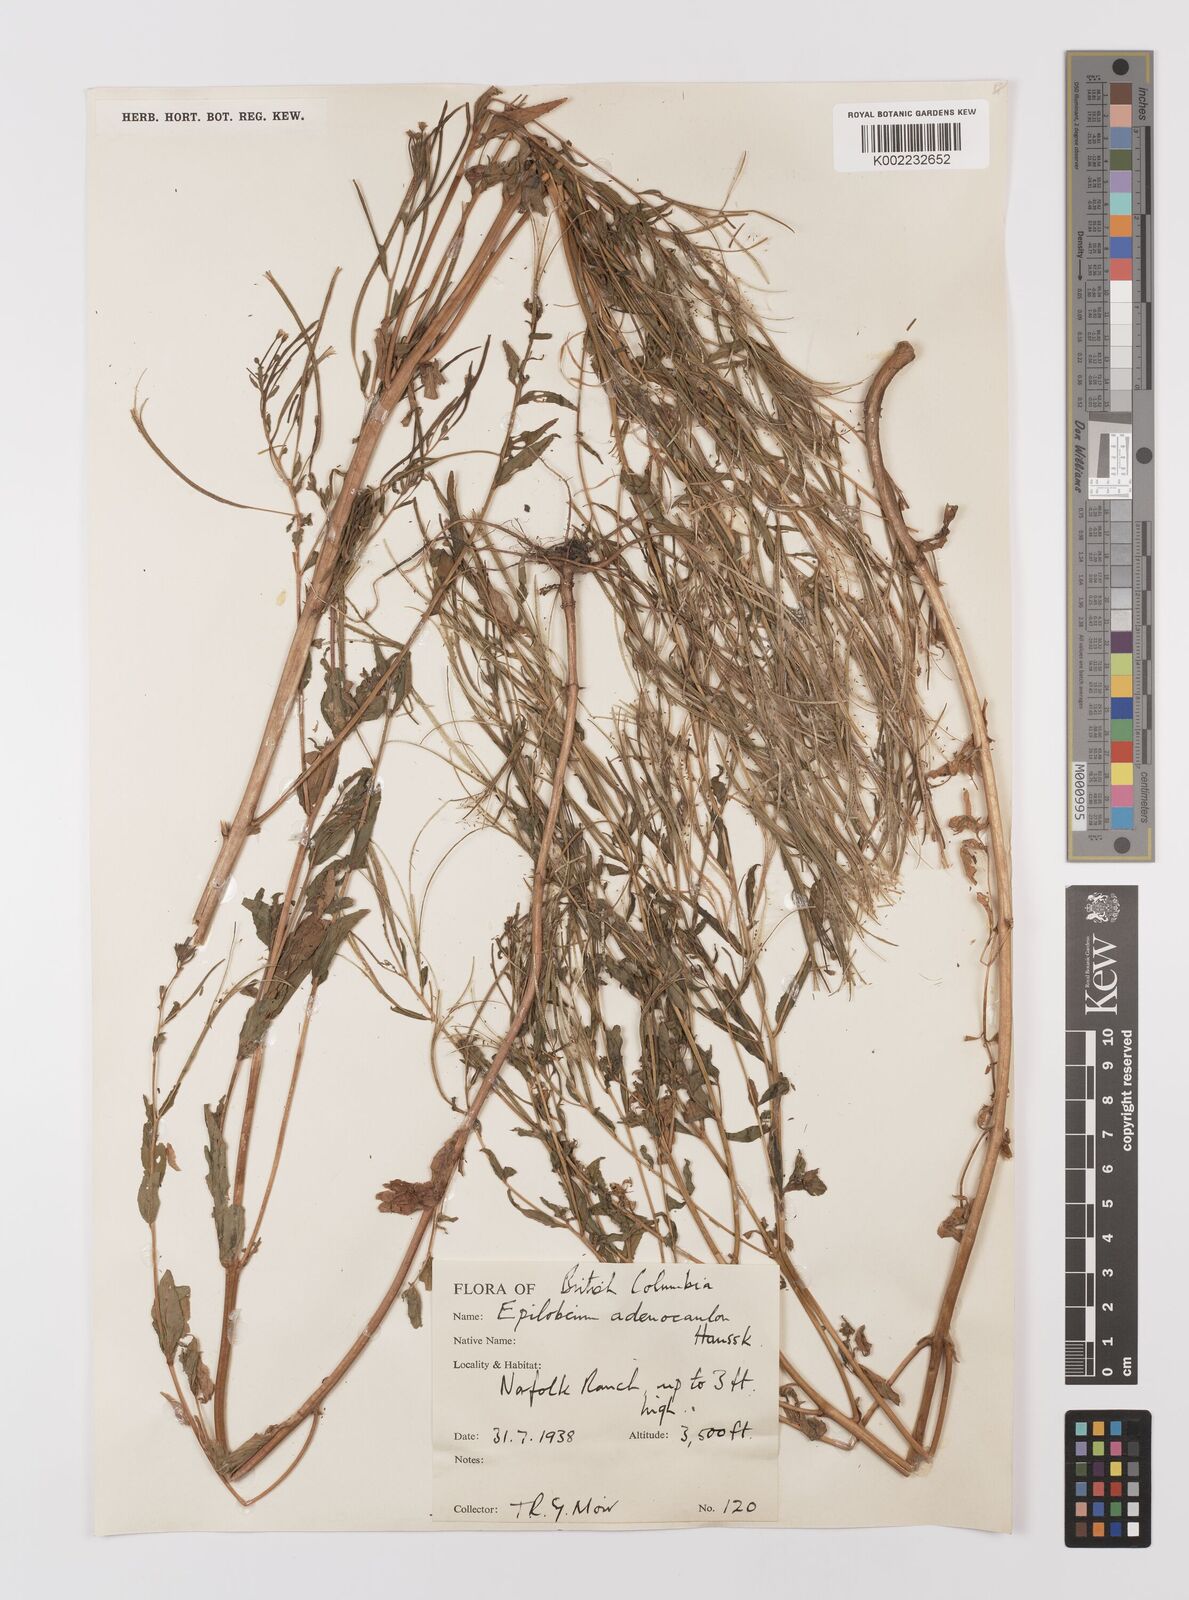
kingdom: Plantae
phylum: Tracheophyta
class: Magnoliopsida
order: Myrtales
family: Onagraceae
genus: Epilobium
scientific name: Epilobium ciliatum
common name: American willowherb
